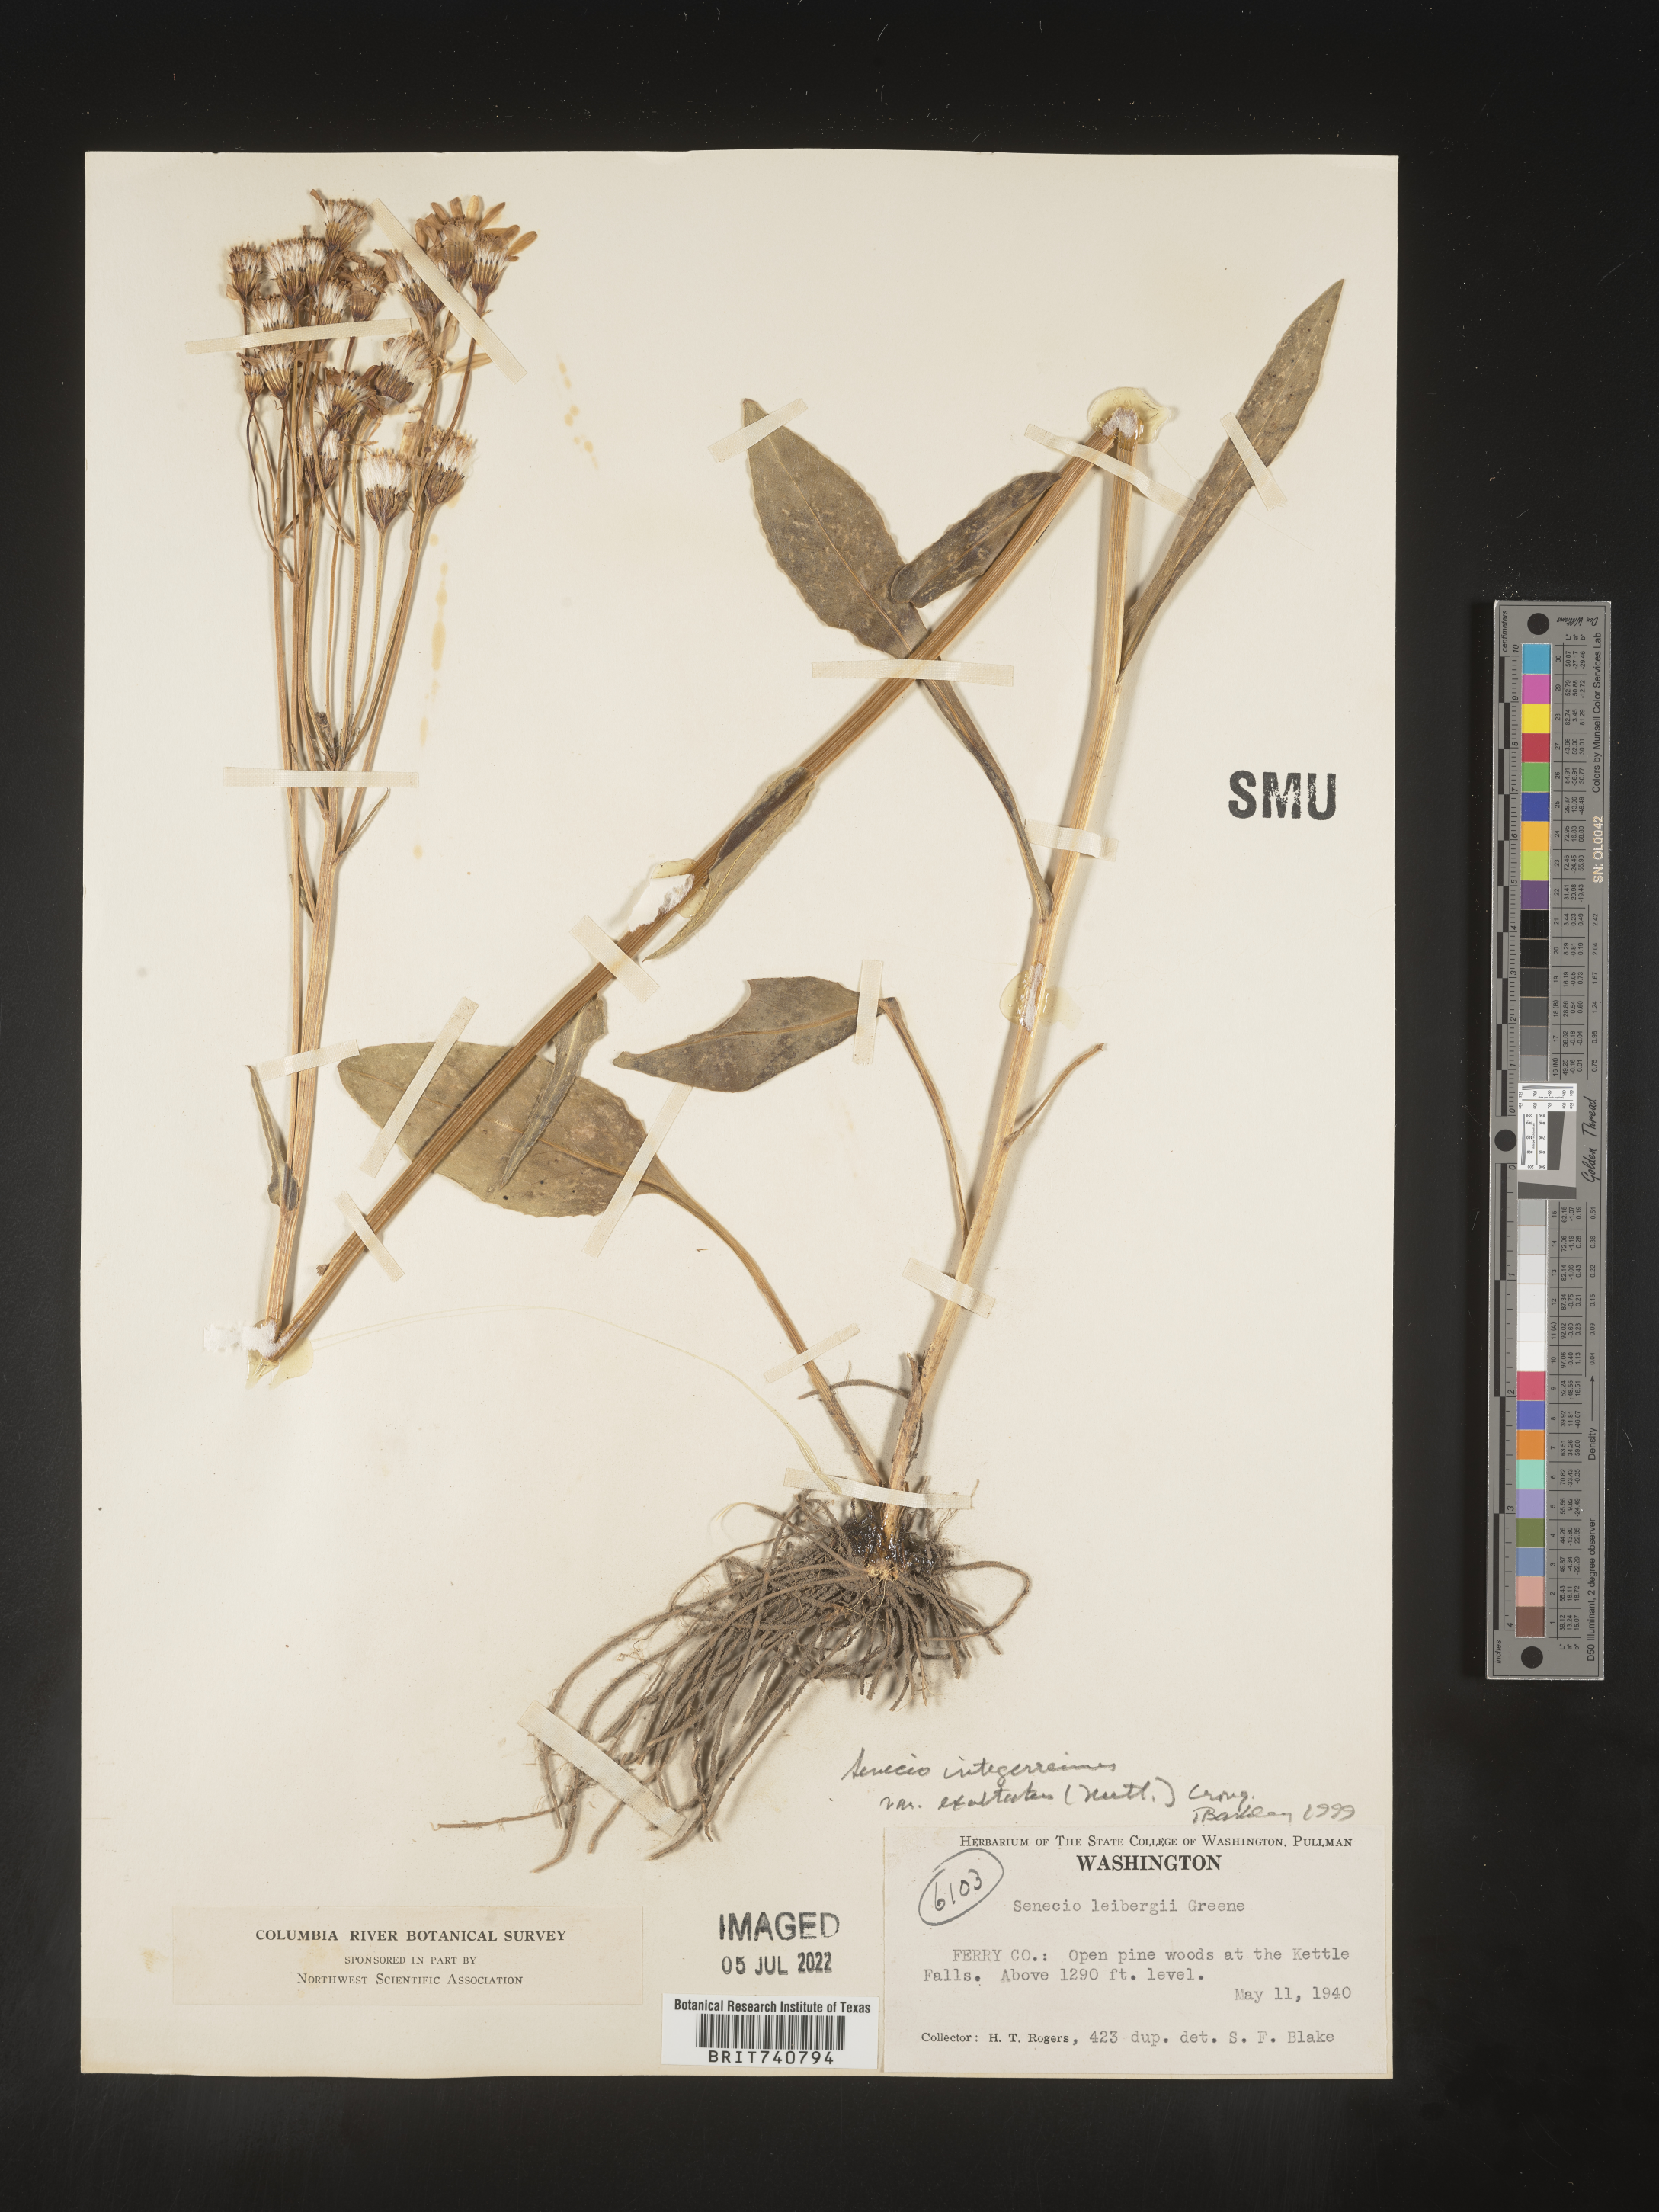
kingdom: Plantae
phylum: Tracheophyta
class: Magnoliopsida
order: Asterales
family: Asteraceae
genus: Senecio
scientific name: Senecio integerrimus
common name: Gaugeplant
